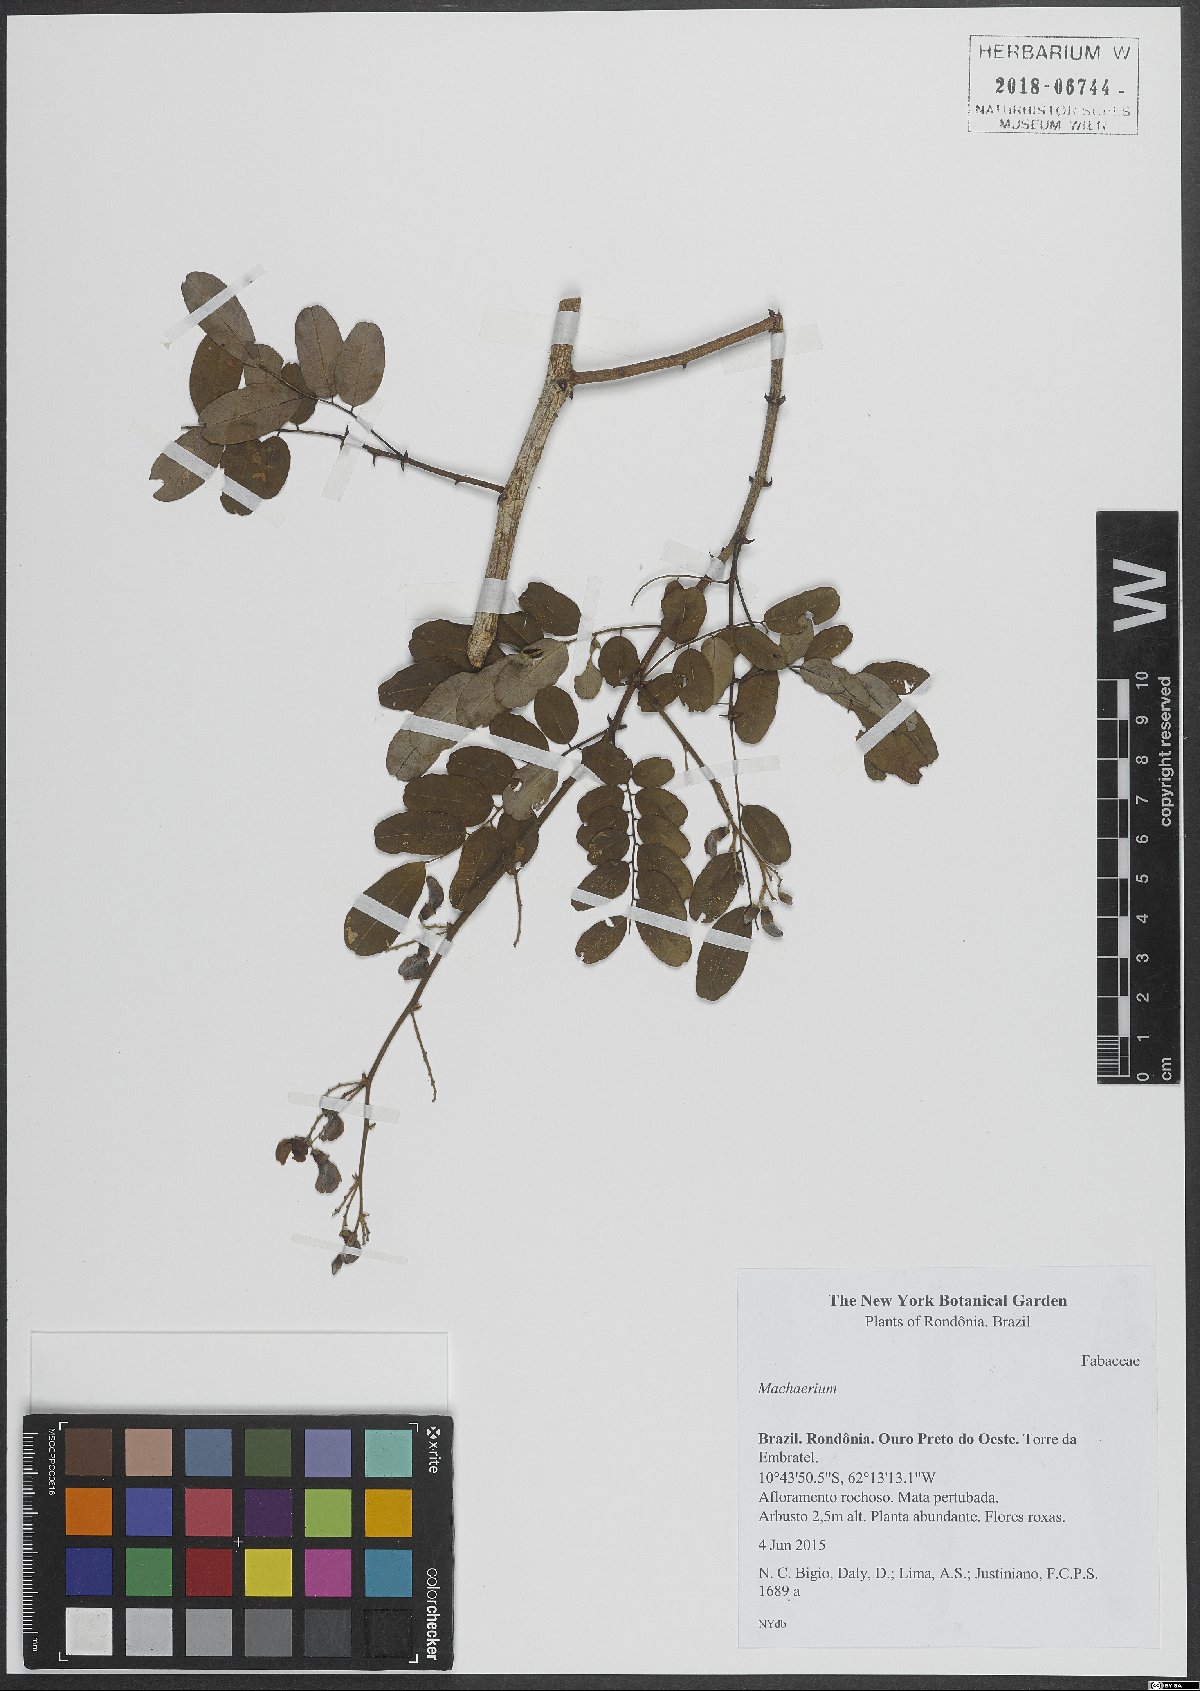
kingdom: Plantae
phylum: Tracheophyta
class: Magnoliopsida
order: Fabales
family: Fabaceae
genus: Machaerium
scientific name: Machaerium
